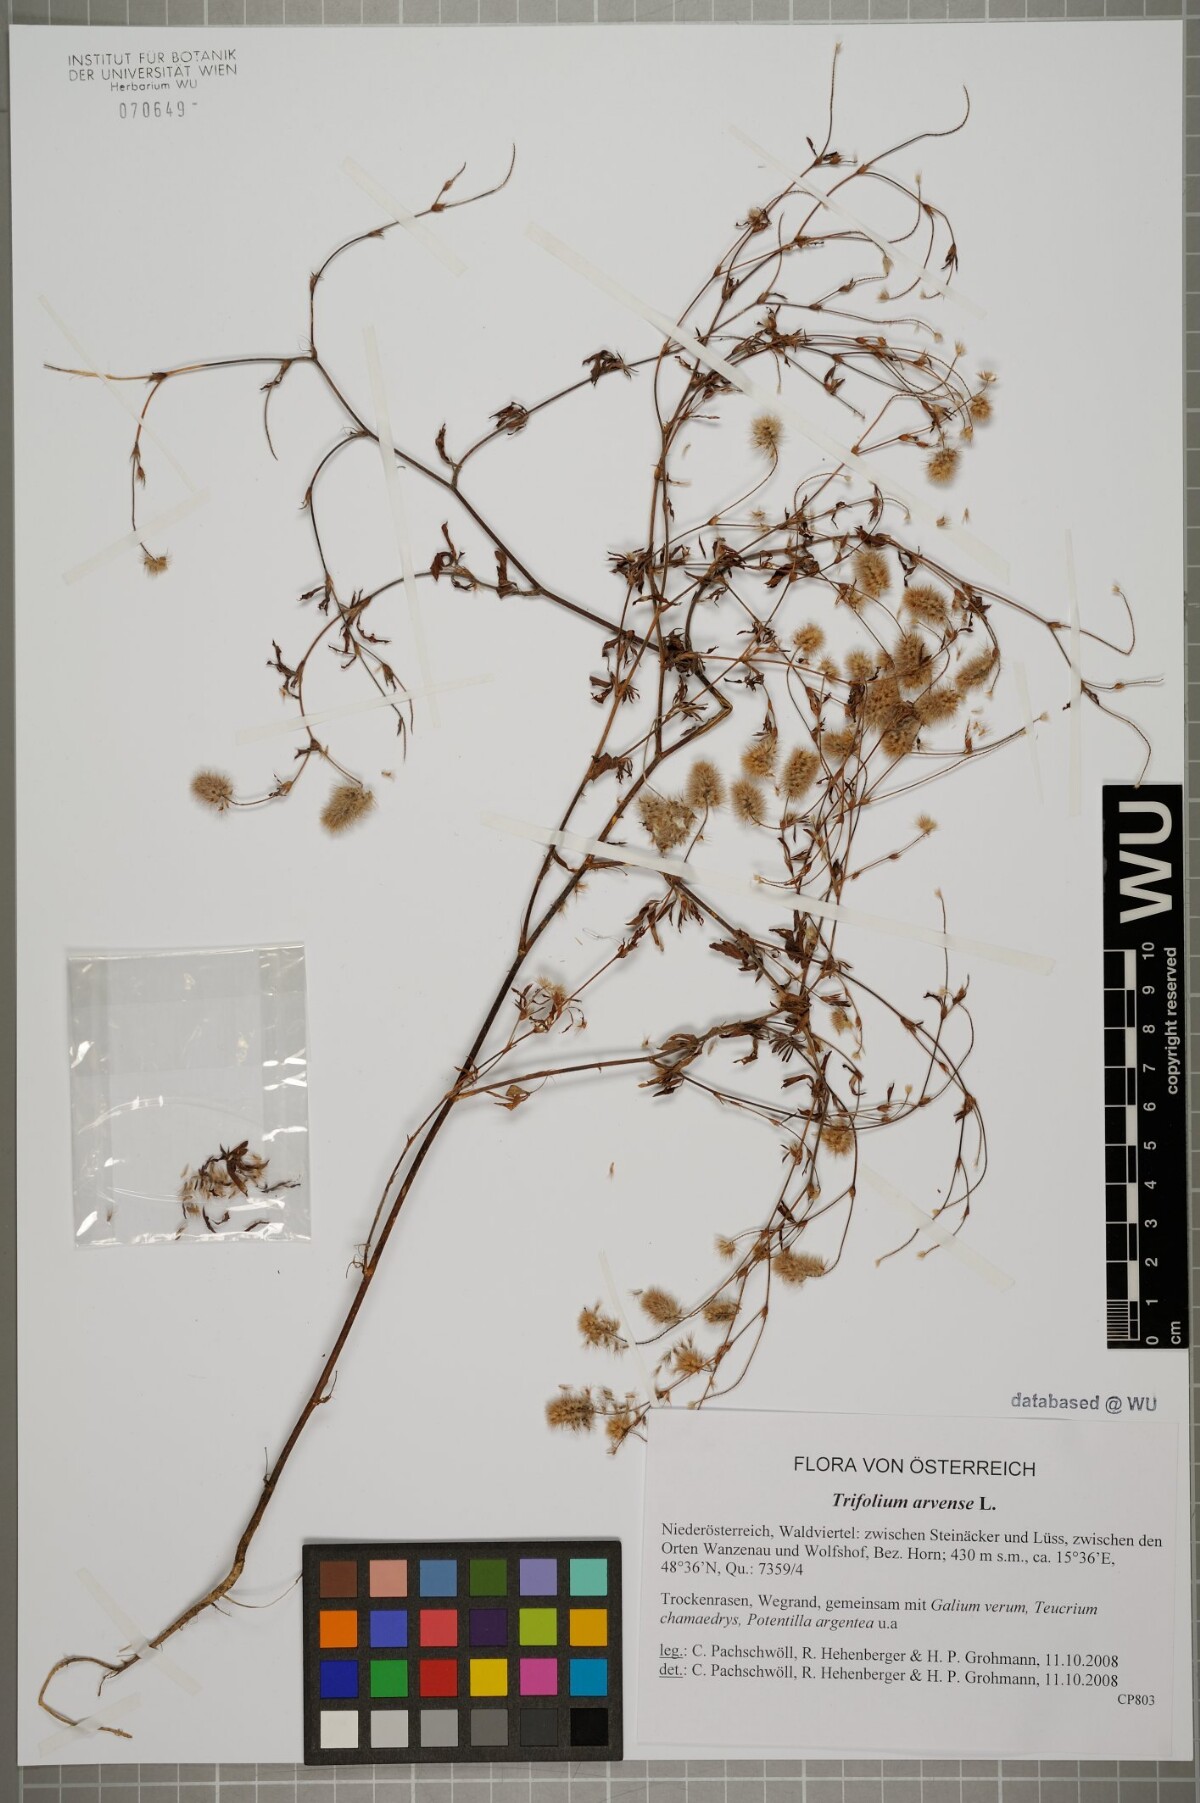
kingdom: Plantae
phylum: Tracheophyta
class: Magnoliopsida
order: Fabales
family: Fabaceae
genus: Trifolium
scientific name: Trifolium arvense
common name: Hare's-foot clover
